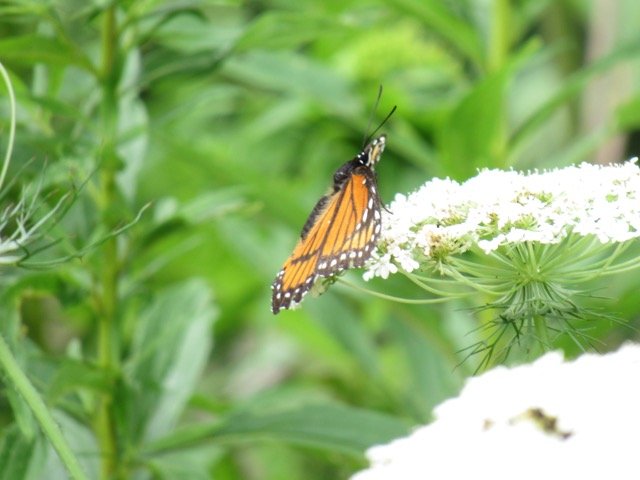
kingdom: Animalia
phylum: Arthropoda
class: Insecta
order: Lepidoptera
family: Nymphalidae
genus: Limenitis
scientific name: Limenitis archippus
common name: Viceroy
